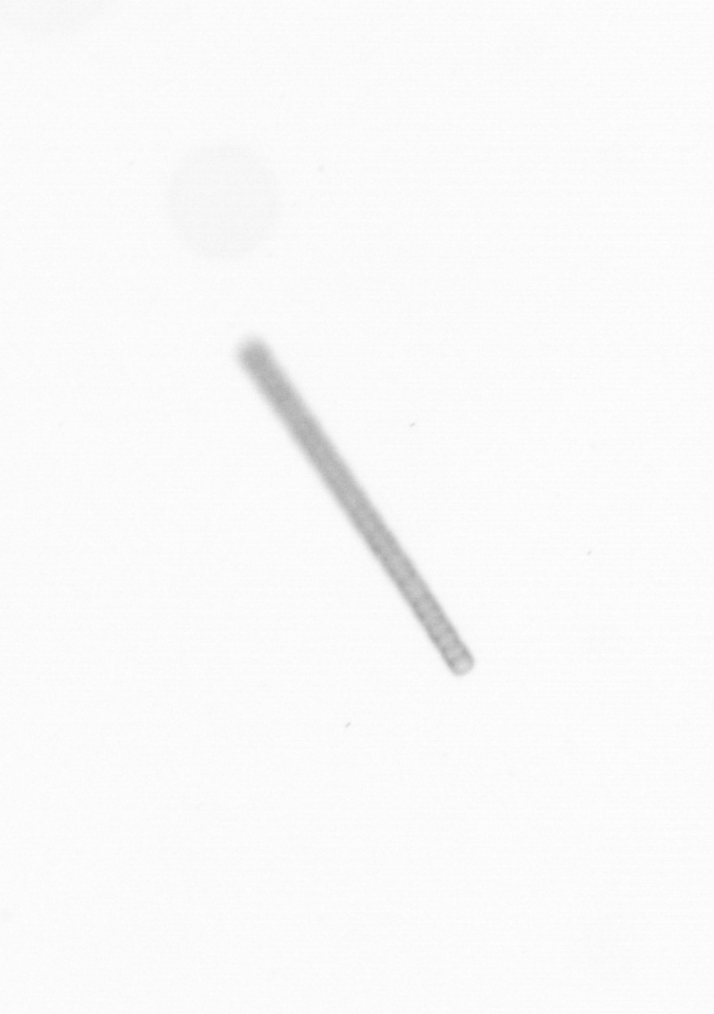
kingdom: Chromista
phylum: Ochrophyta
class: Bacillariophyceae
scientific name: Bacillariophyceae
